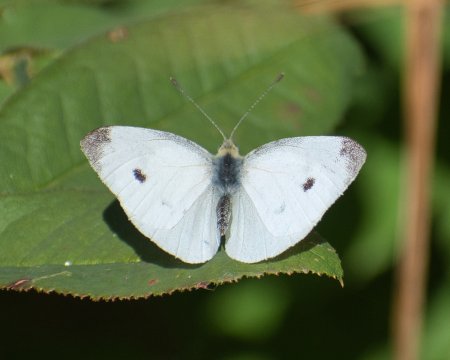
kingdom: Animalia
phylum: Arthropoda
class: Insecta
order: Lepidoptera
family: Pieridae
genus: Pieris
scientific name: Pieris rapae
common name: Cabbage White
